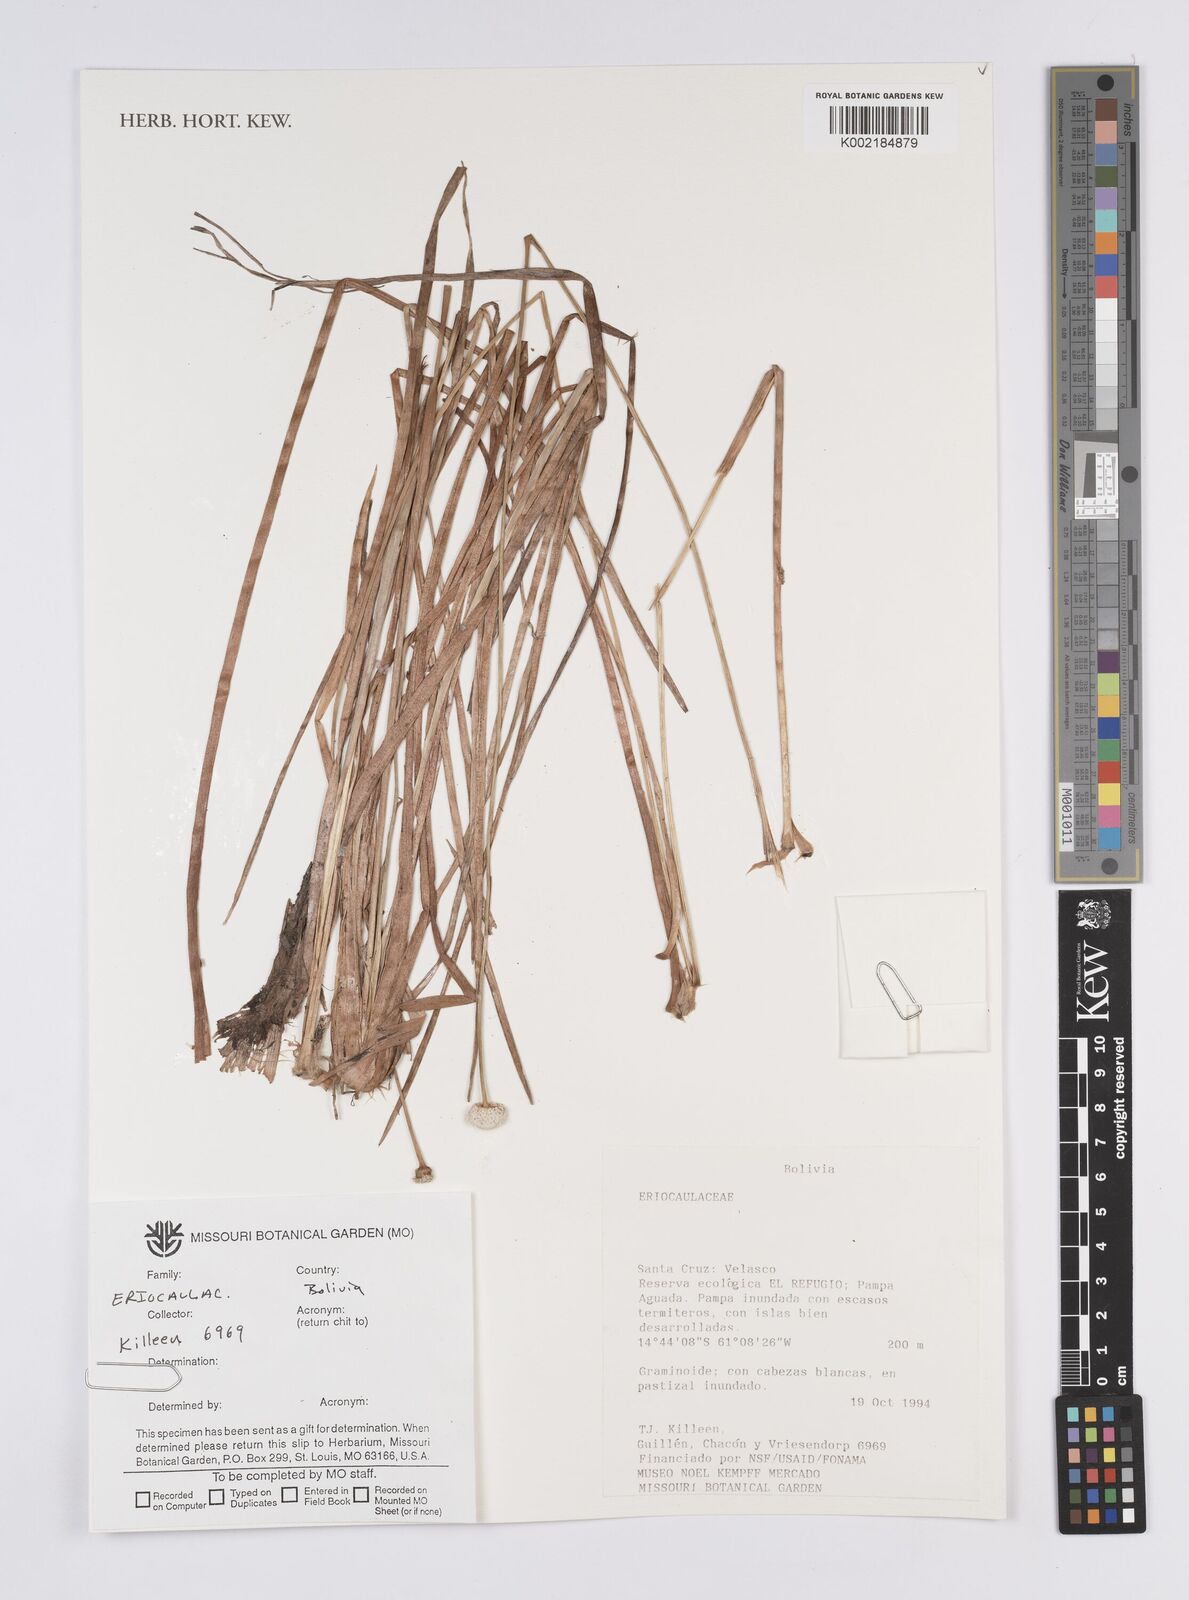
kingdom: Plantae
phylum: Tracheophyta
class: Liliopsida
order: Poales
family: Eriocaulaceae
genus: Eriocaulon
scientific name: Eriocaulon
